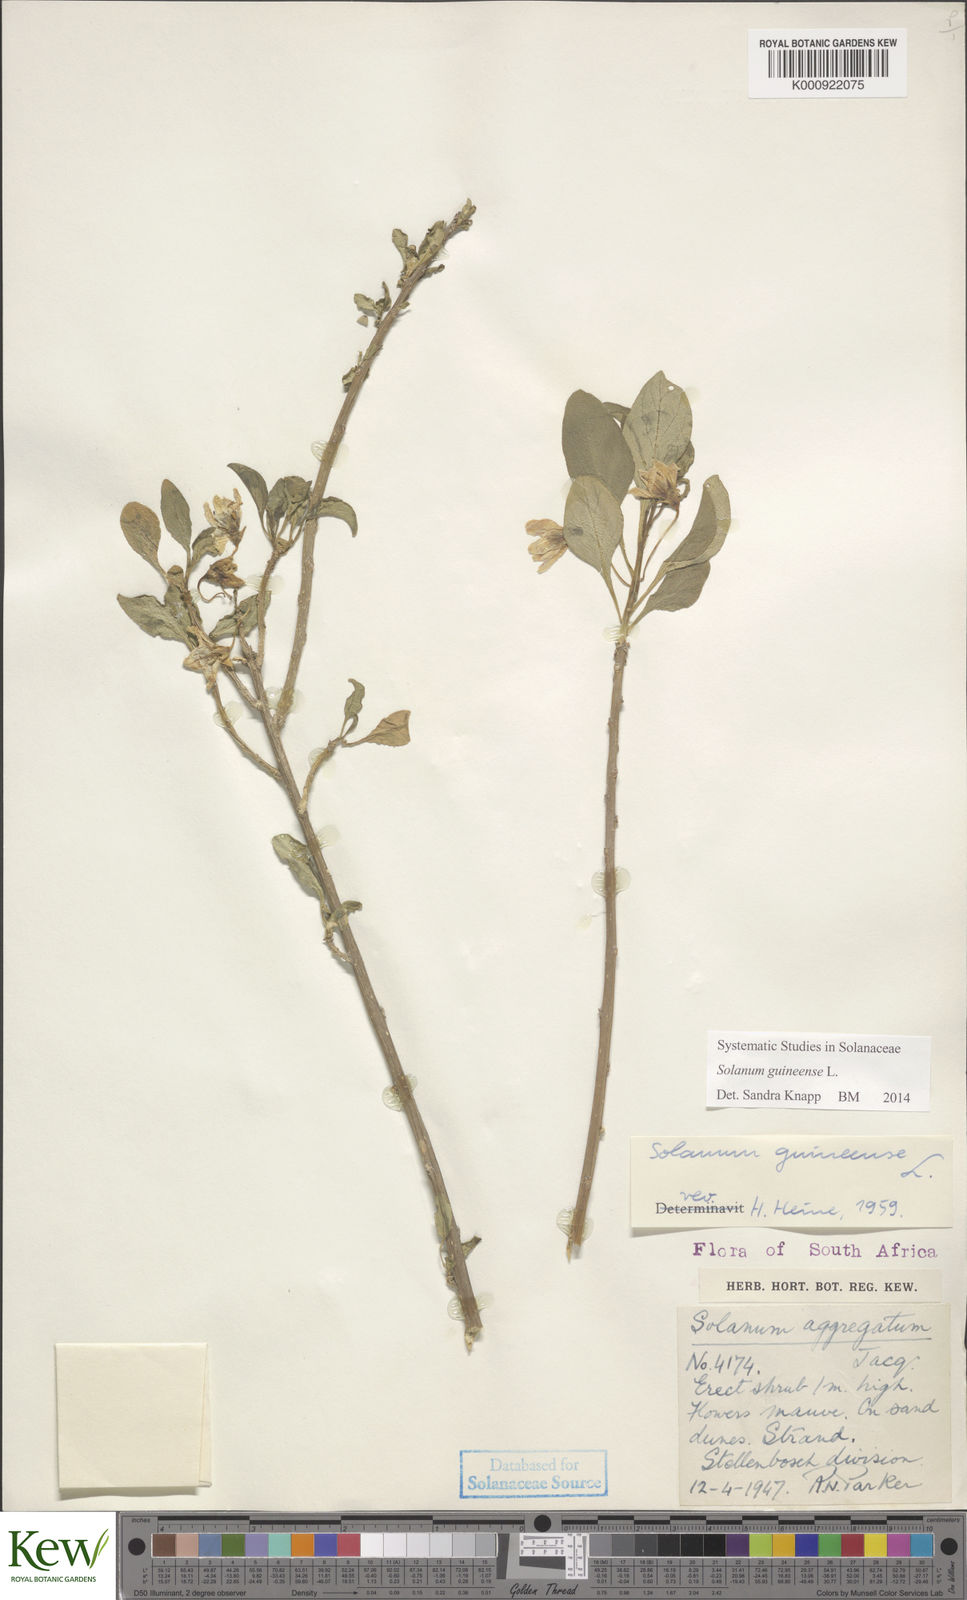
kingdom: Plantae
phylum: Tracheophyta
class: Magnoliopsida
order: Solanales
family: Solanaceae
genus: Solanum
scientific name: Solanum guineense
